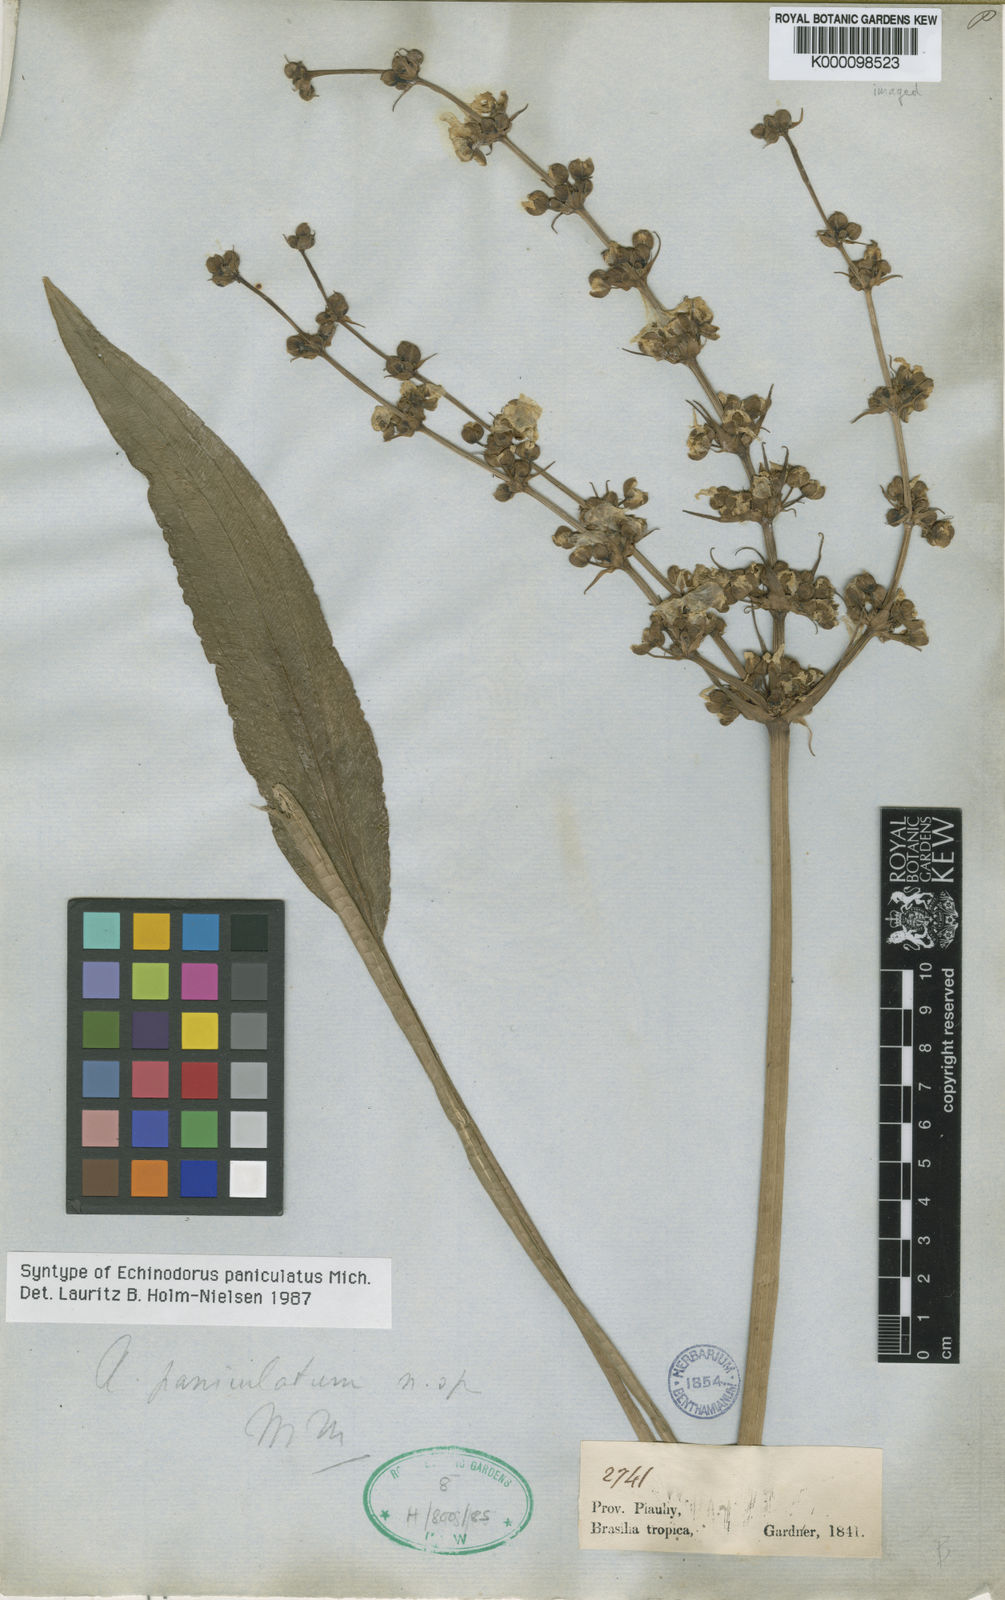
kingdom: Plantae
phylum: Tracheophyta
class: Liliopsida
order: Alismatales
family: Alismataceae
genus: Aquarius
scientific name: Aquarius paniculatus
